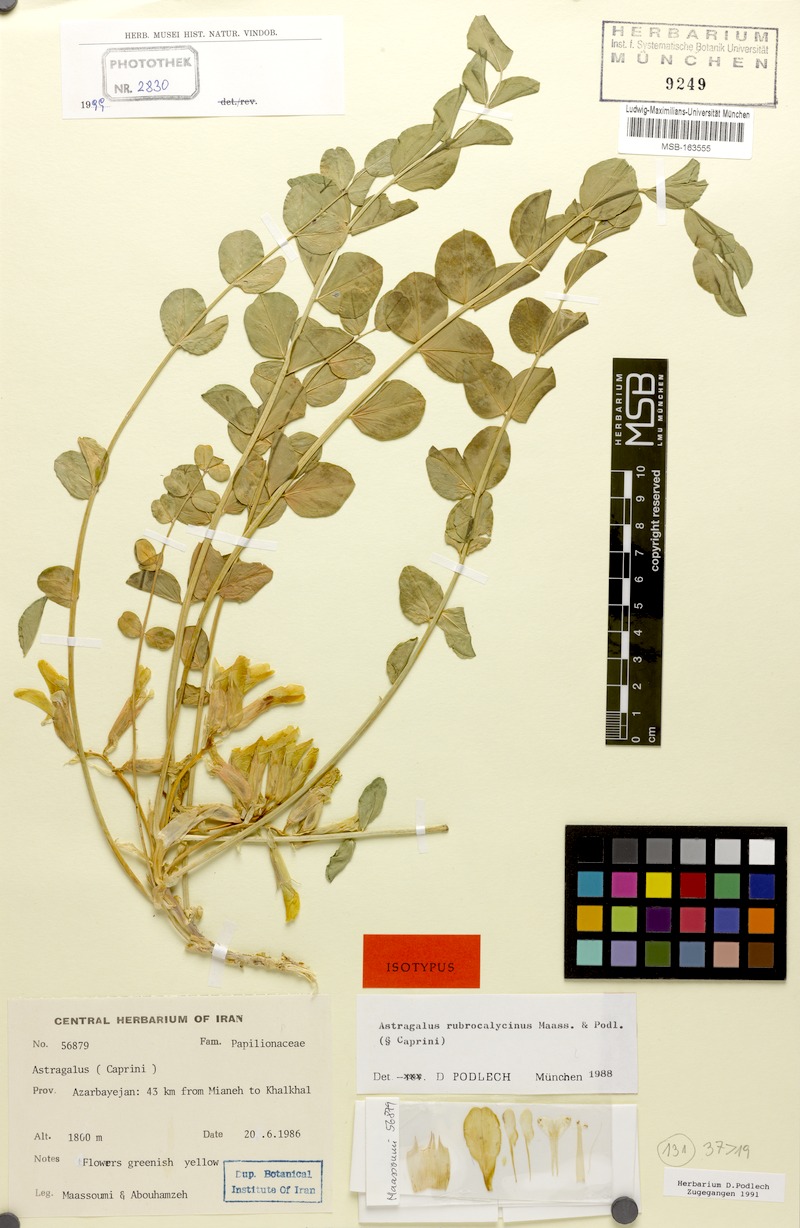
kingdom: Plantae
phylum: Tracheophyta
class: Magnoliopsida
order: Fabales
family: Fabaceae
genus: Astragalus
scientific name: Astragalus rubrocalycinus
